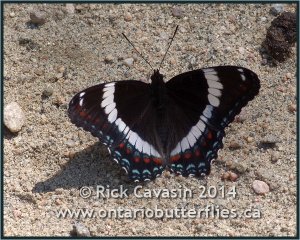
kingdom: Animalia
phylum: Arthropoda
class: Insecta
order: Lepidoptera
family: Nymphalidae
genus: Limenitis
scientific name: Limenitis arthemis
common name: Red-spotted Admiral
